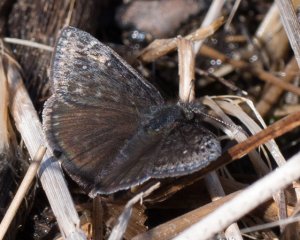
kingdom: Animalia
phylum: Arthropoda
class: Insecta
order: Lepidoptera
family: Hesperiidae
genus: Gesta
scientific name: Gesta
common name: Persius Duskywing
